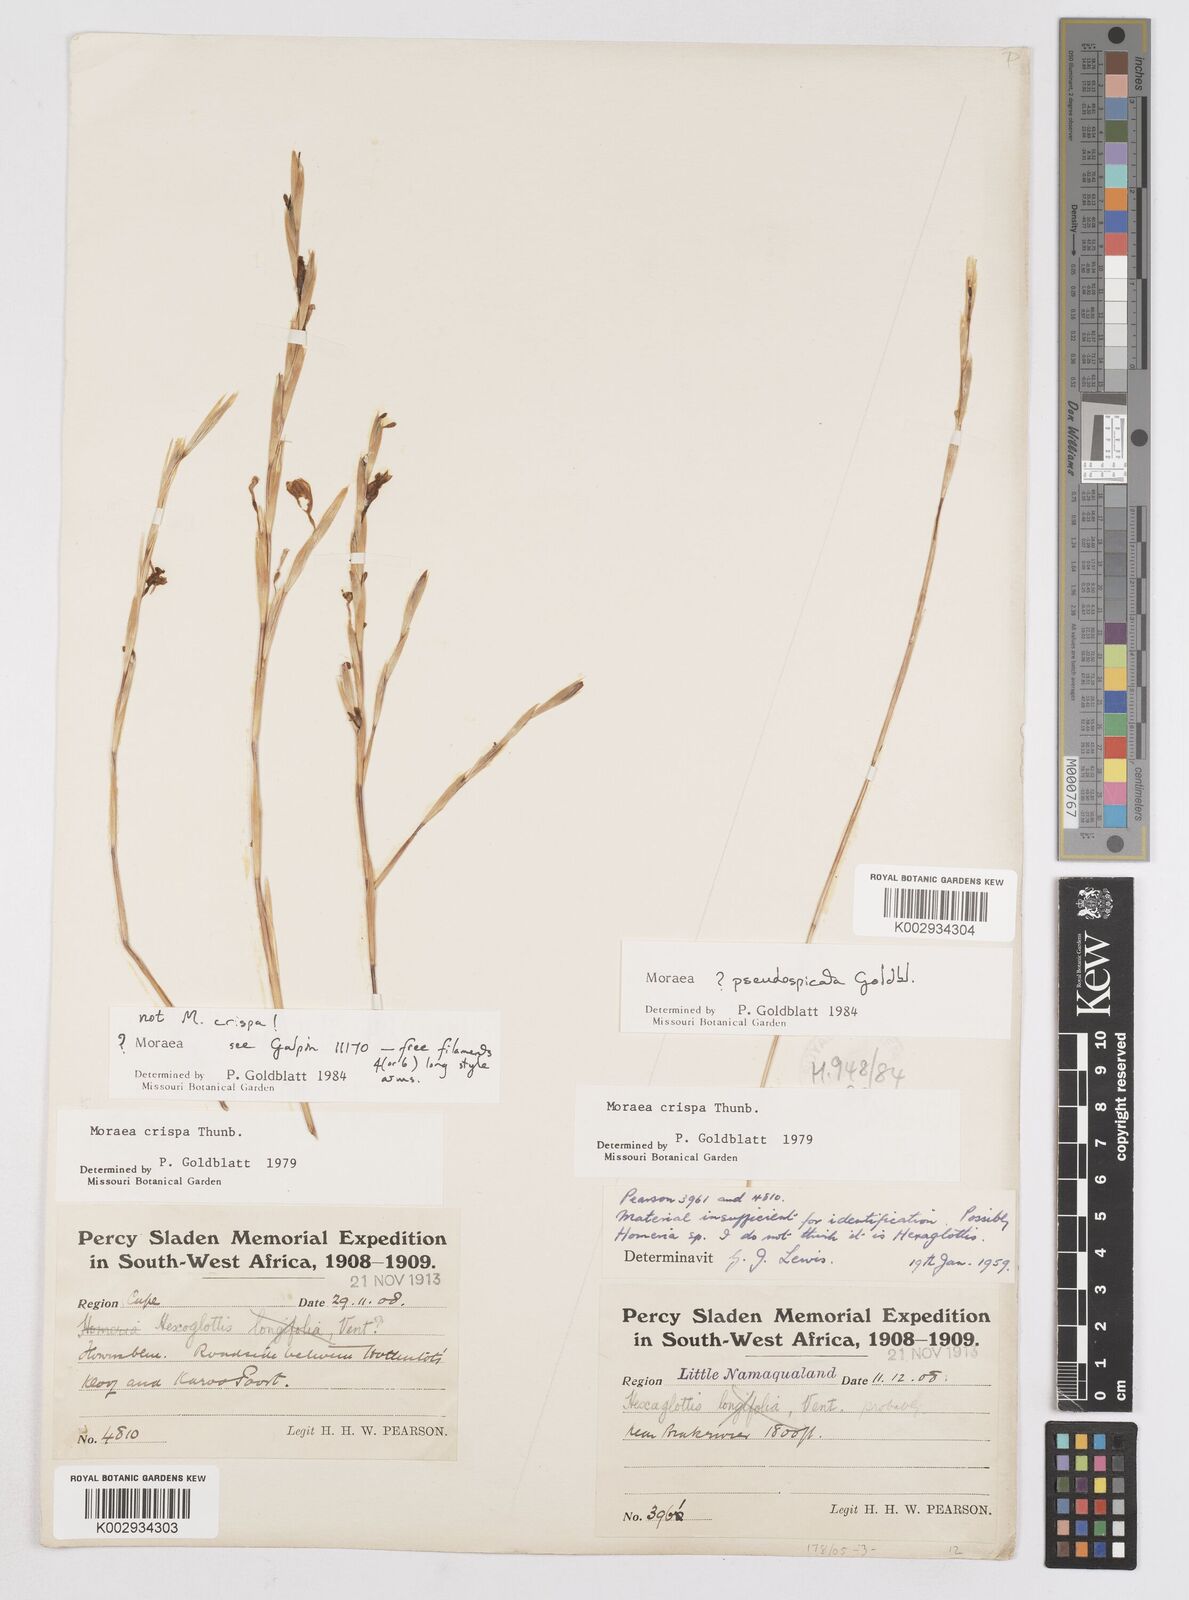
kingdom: Plantae
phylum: Tracheophyta
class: Liliopsida
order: Asparagales
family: Iridaceae
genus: Moraea
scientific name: Moraea pseudospicata
